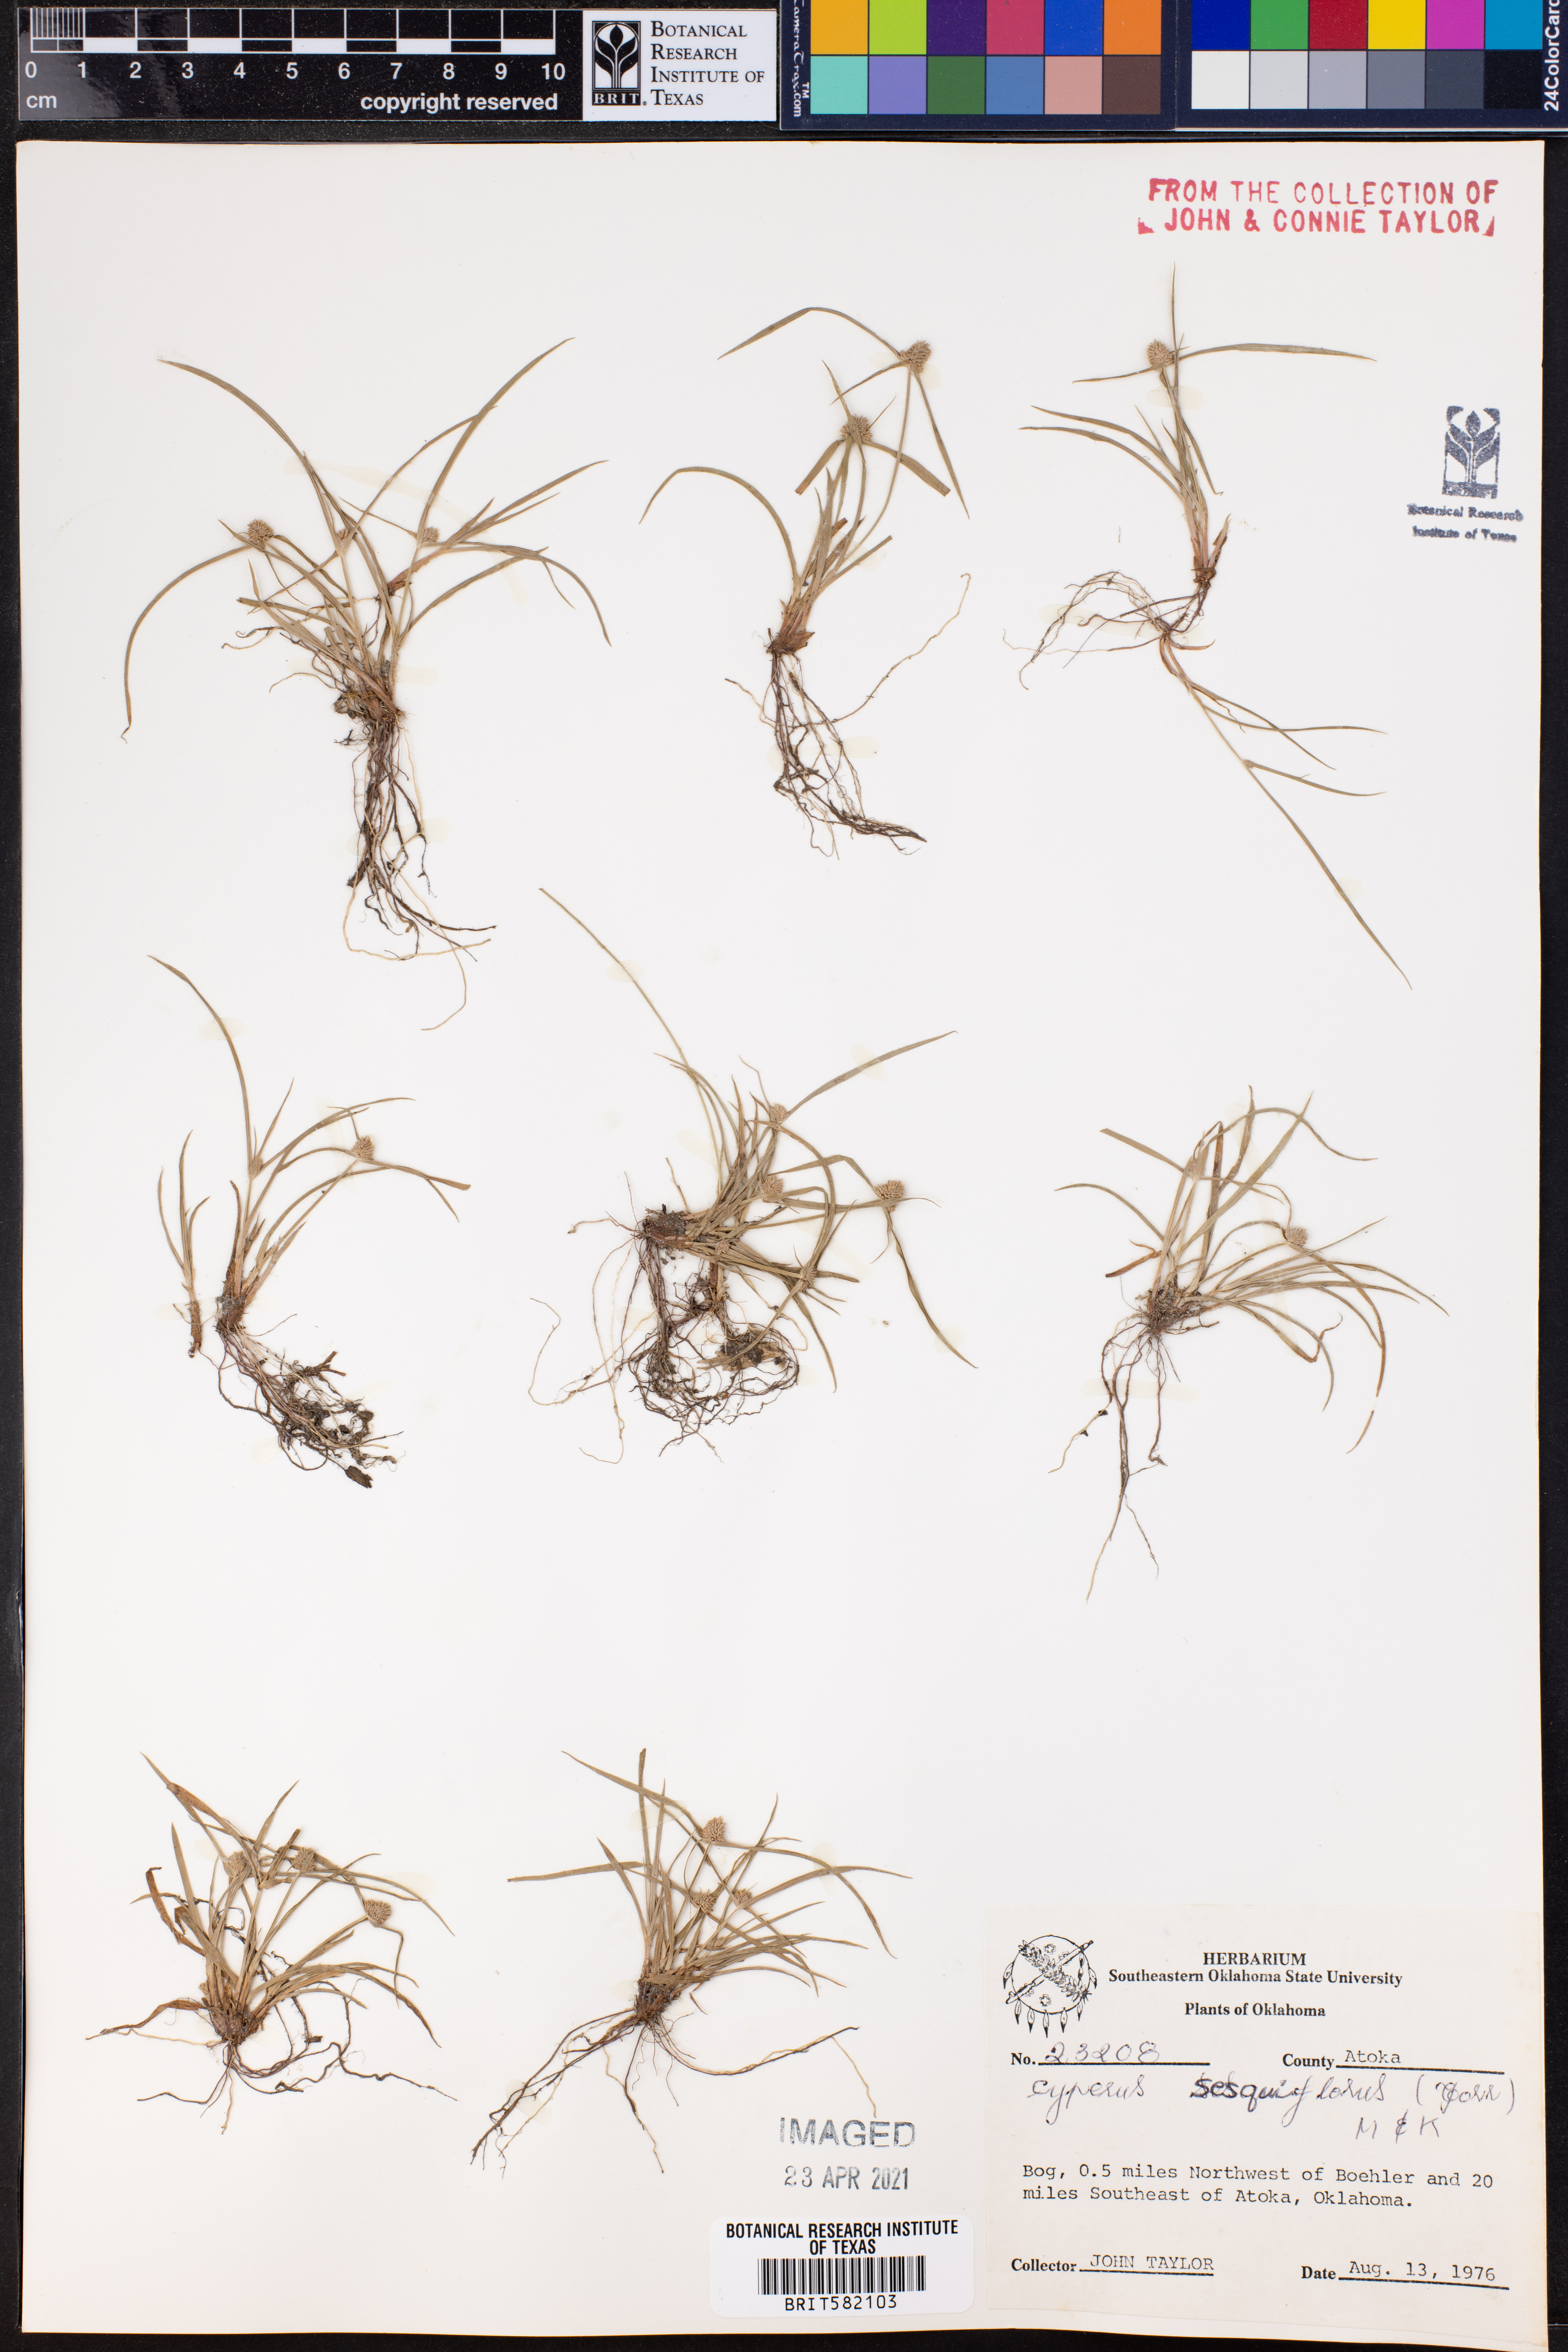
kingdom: Plantae
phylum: Tracheophyta
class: Liliopsida
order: Poales
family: Cyperaceae
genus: Cyperus
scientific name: Cyperus sesquiflorus
